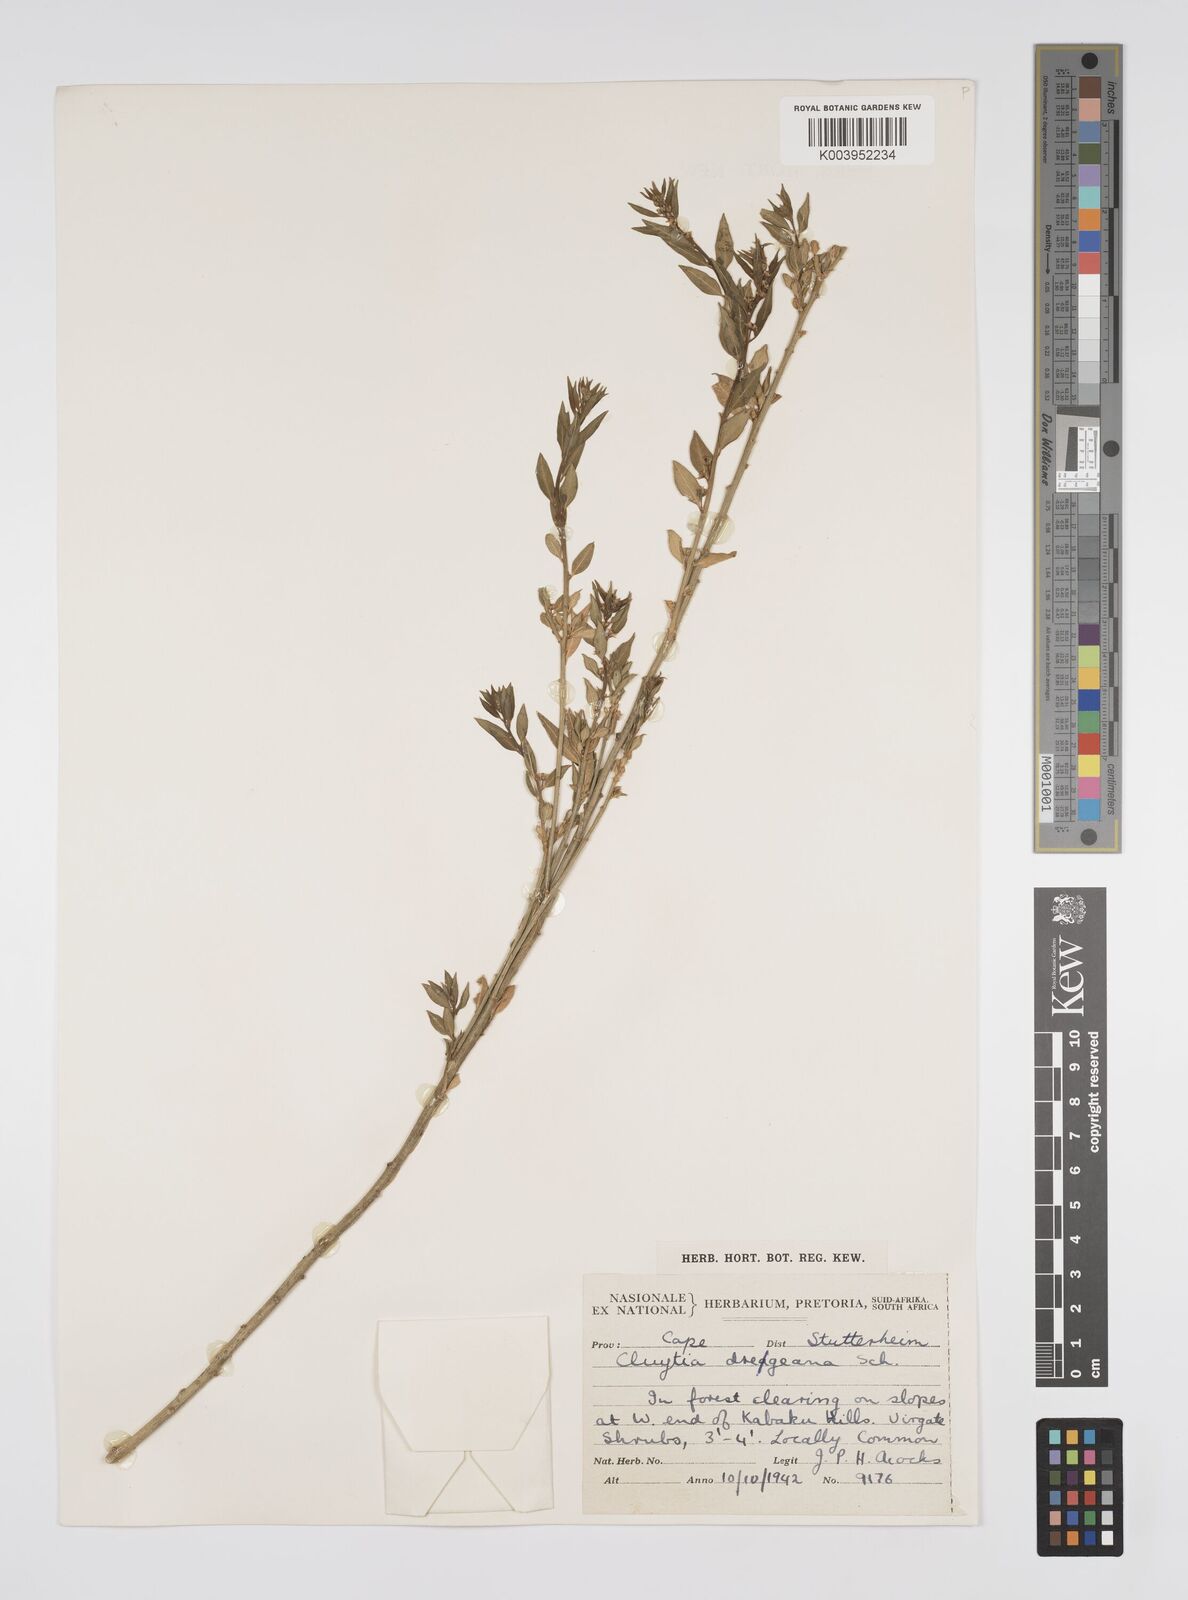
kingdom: Plantae
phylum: Tracheophyta
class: Magnoliopsida
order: Malpighiales
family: Peraceae
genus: Clutia
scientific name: Clutia dregeana
